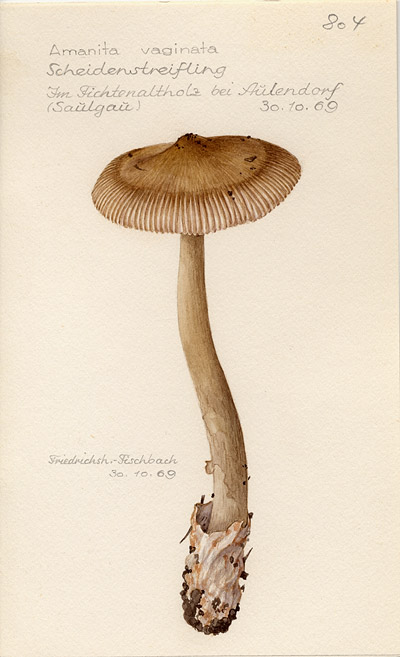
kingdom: Fungi
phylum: Basidiomycota
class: Agaricomycetes
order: Agaricales
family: Amanitaceae
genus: Amanita
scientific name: Amanita vaginata
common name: Grisette
